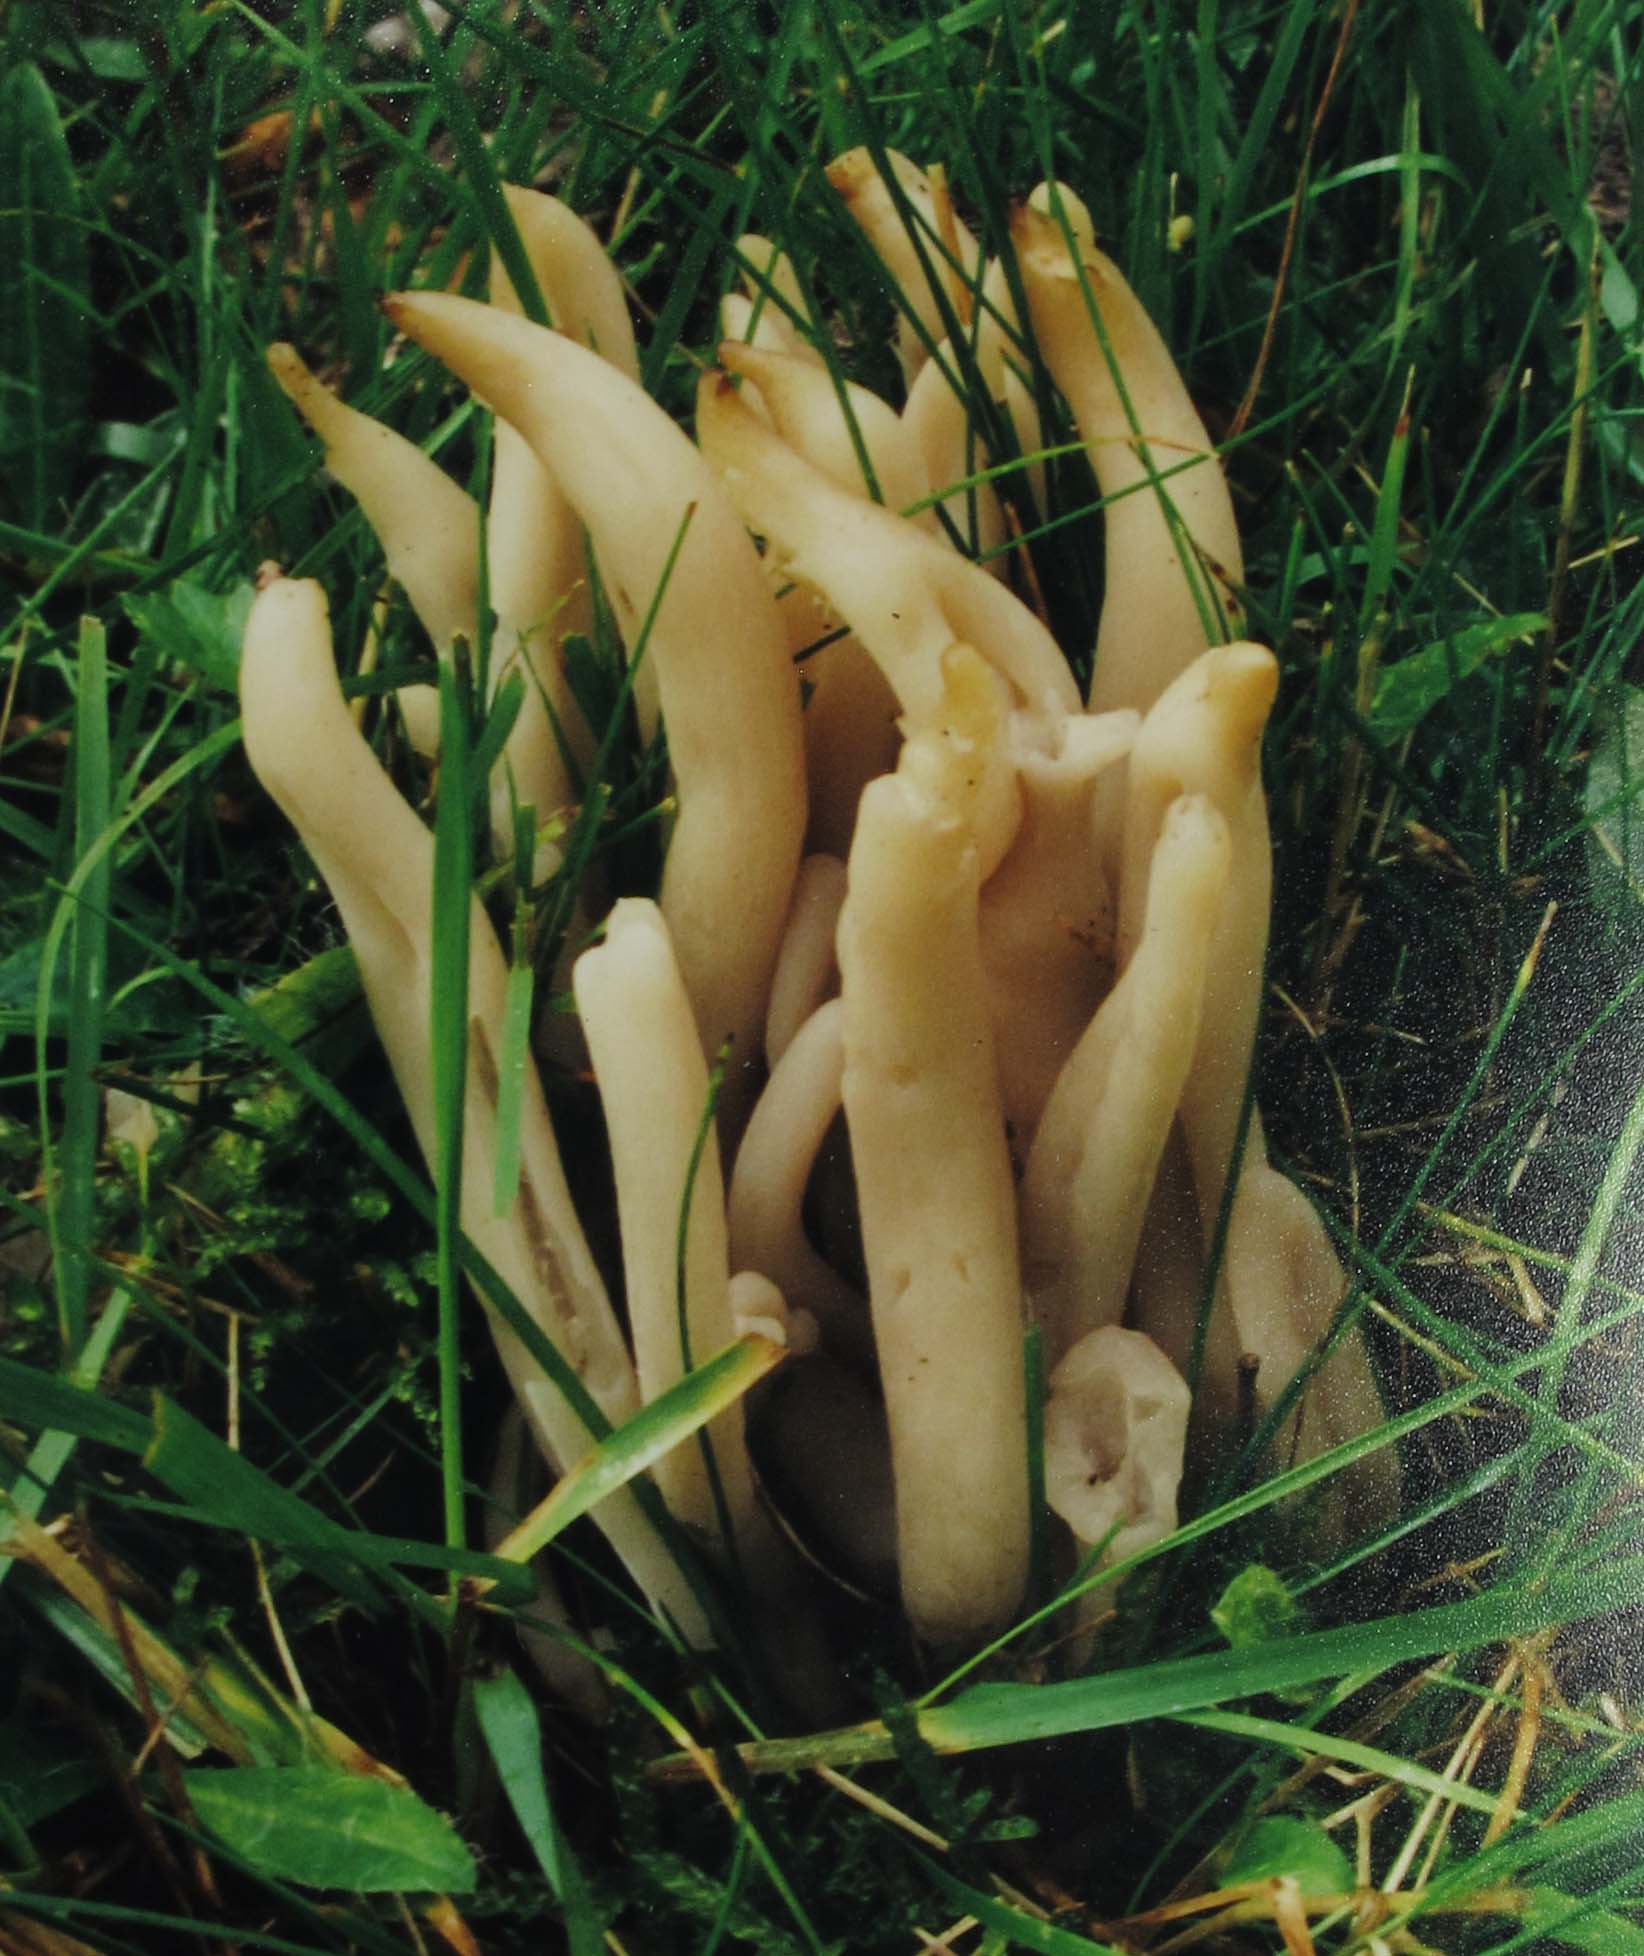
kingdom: Fungi
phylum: Basidiomycota
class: Agaricomycetes
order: Agaricales
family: Clavariaceae
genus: Clavaria
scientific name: Clavaria fumosa
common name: røggrå køllesvamp
